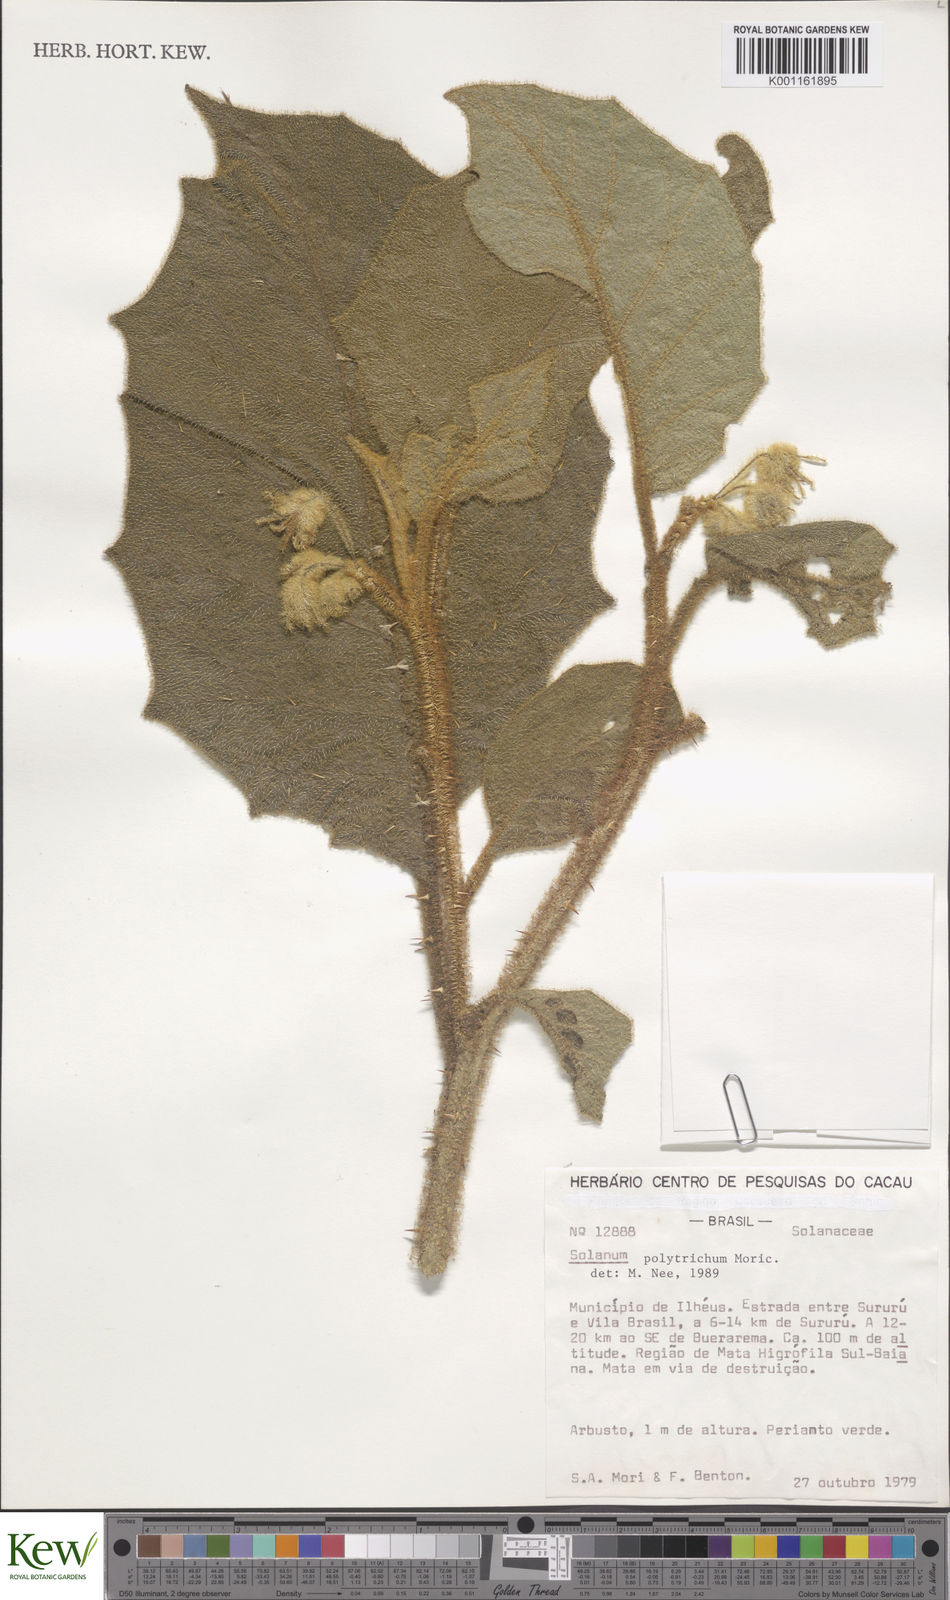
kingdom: Plantae
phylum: Tracheophyta
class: Magnoliopsida
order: Solanales
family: Solanaceae
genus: Solanum
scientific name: Solanum polytrichum
